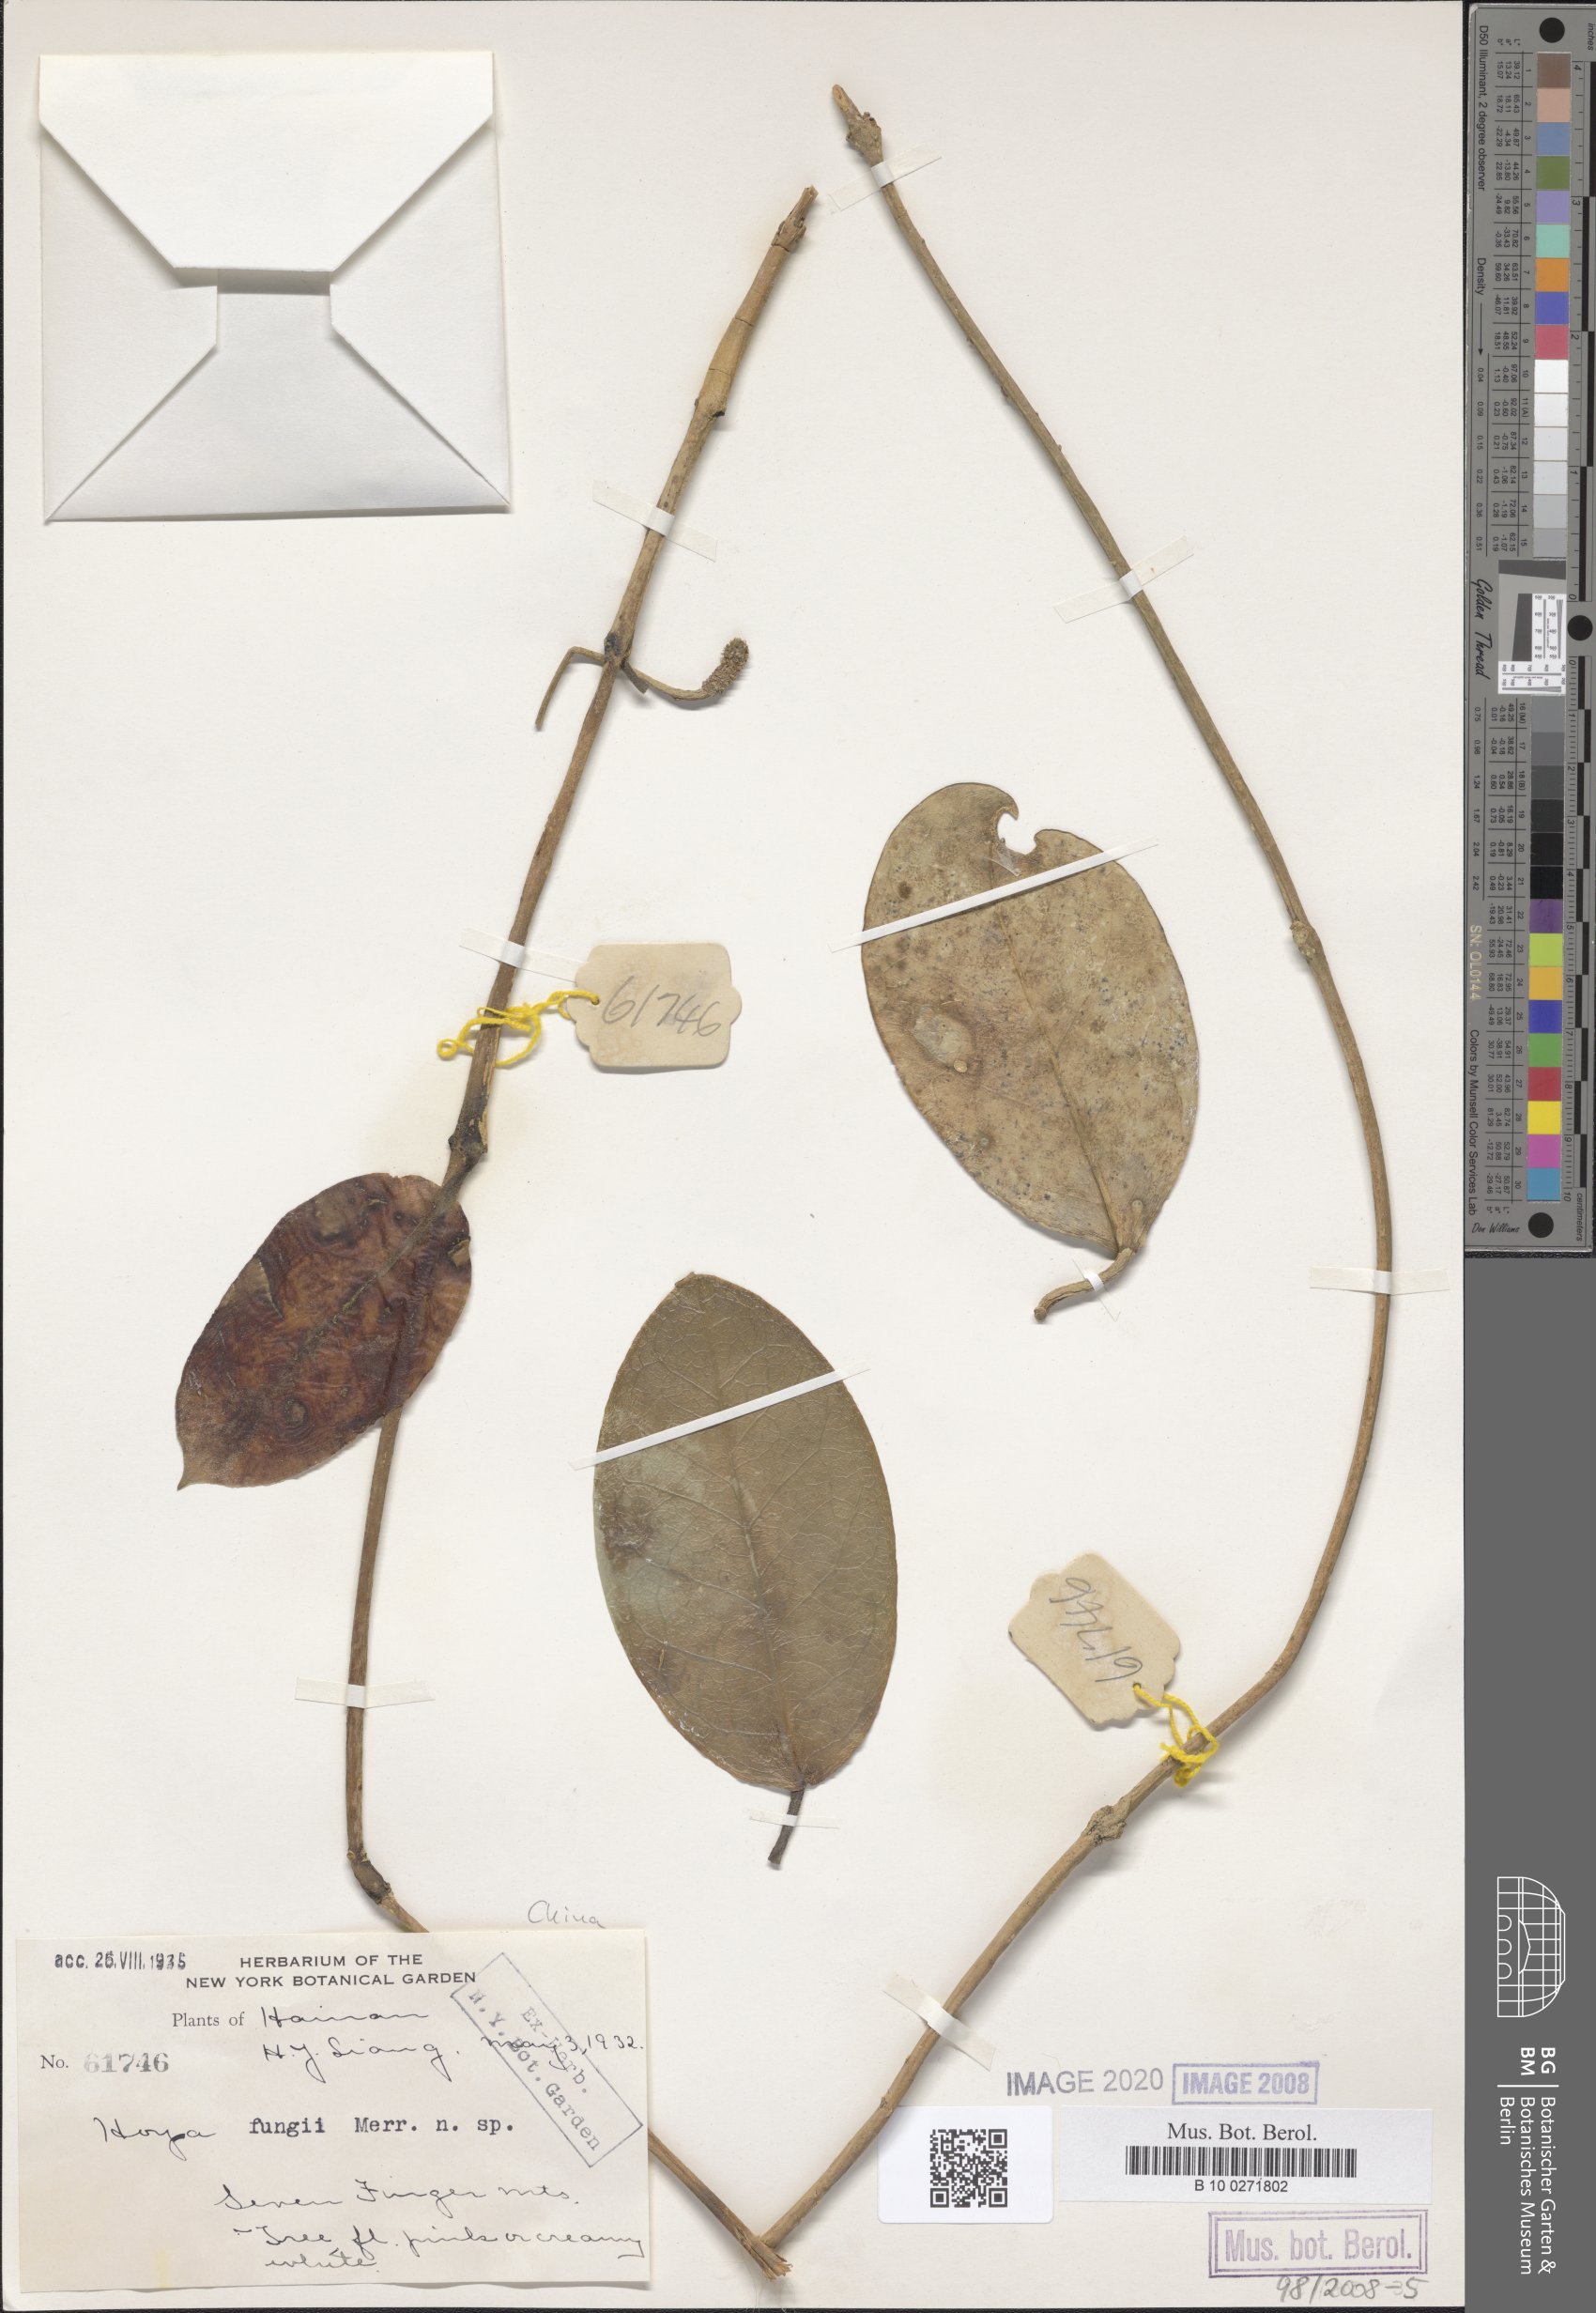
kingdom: Plantae
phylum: Tracheophyta
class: Magnoliopsida
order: Gentianales
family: Apocynaceae
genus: Hoya
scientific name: Hoya fungii
